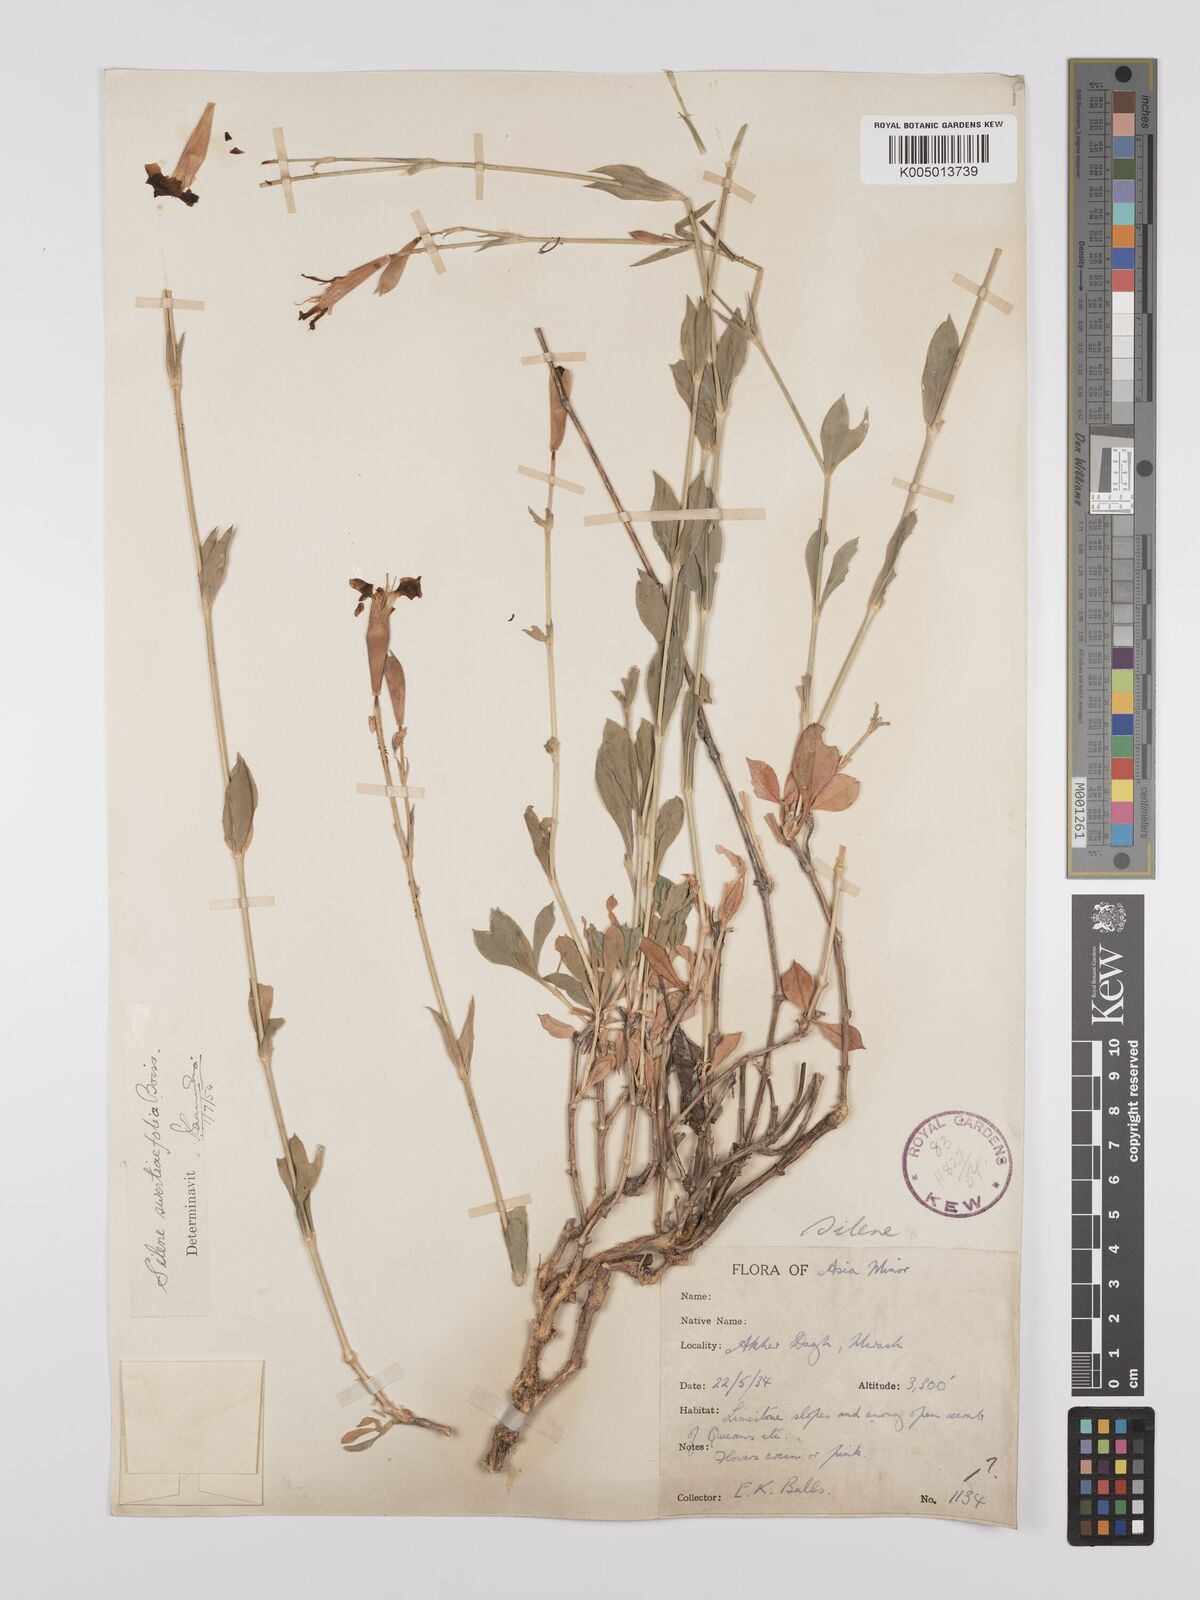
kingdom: Plantae
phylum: Tracheophyta
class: Magnoliopsida
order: Caryophyllales
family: Caryophyllaceae
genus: Silene
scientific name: Silene swertiifolia
